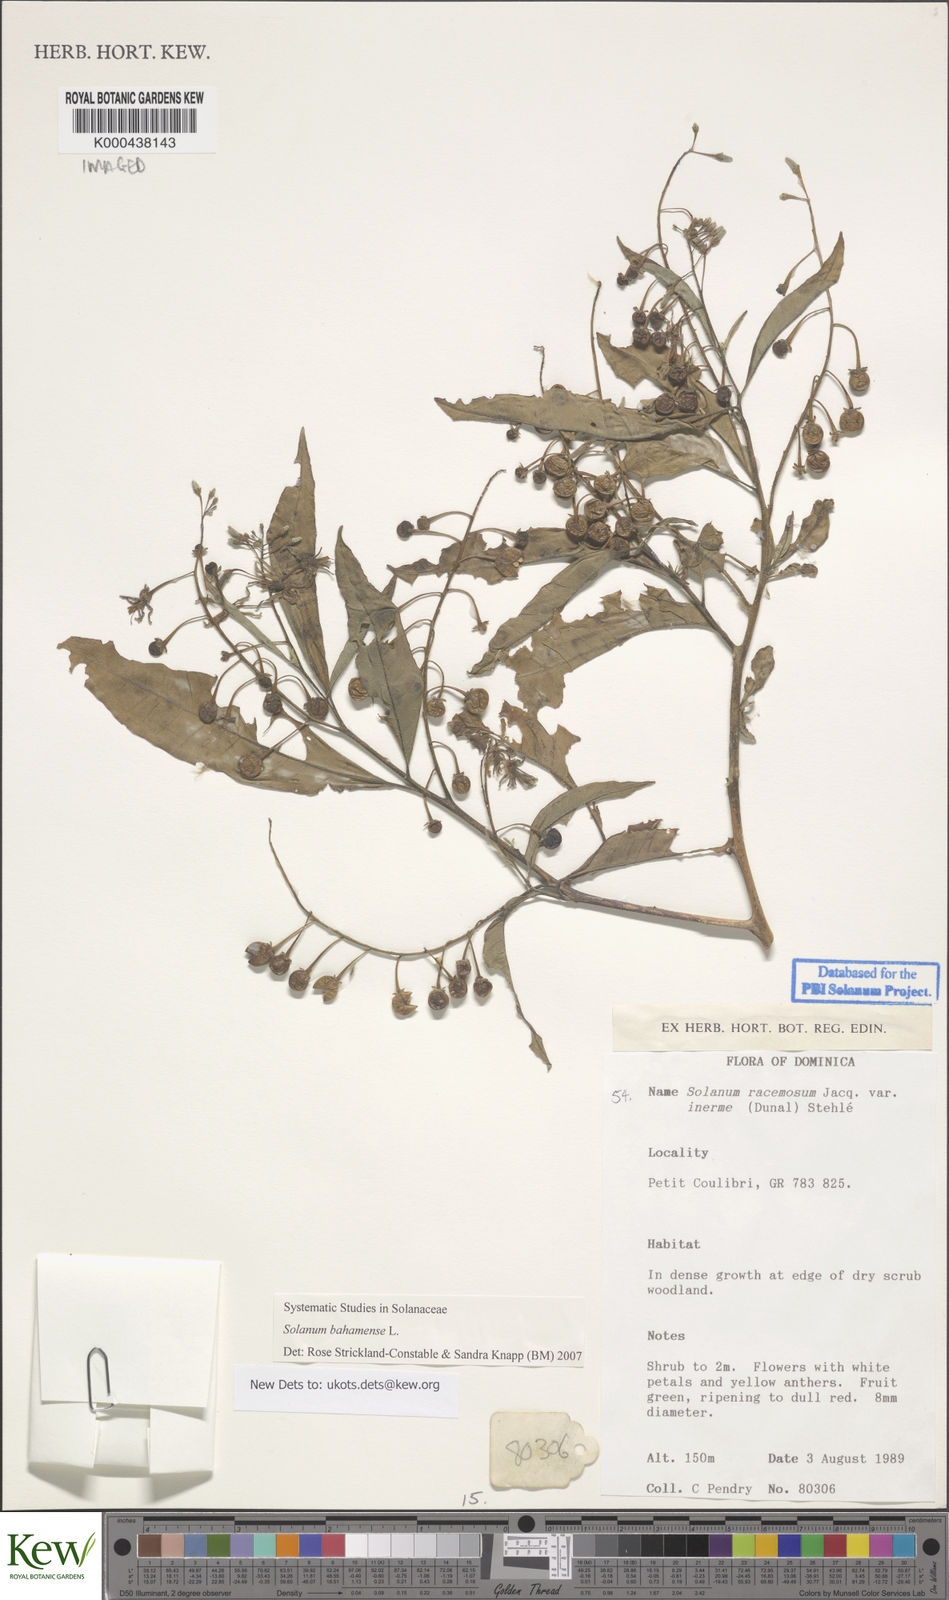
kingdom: Plantae
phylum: Tracheophyta
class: Magnoliopsida
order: Solanales
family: Solanaceae
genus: Solanum
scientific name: Solanum bahamense
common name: Canker-berry
